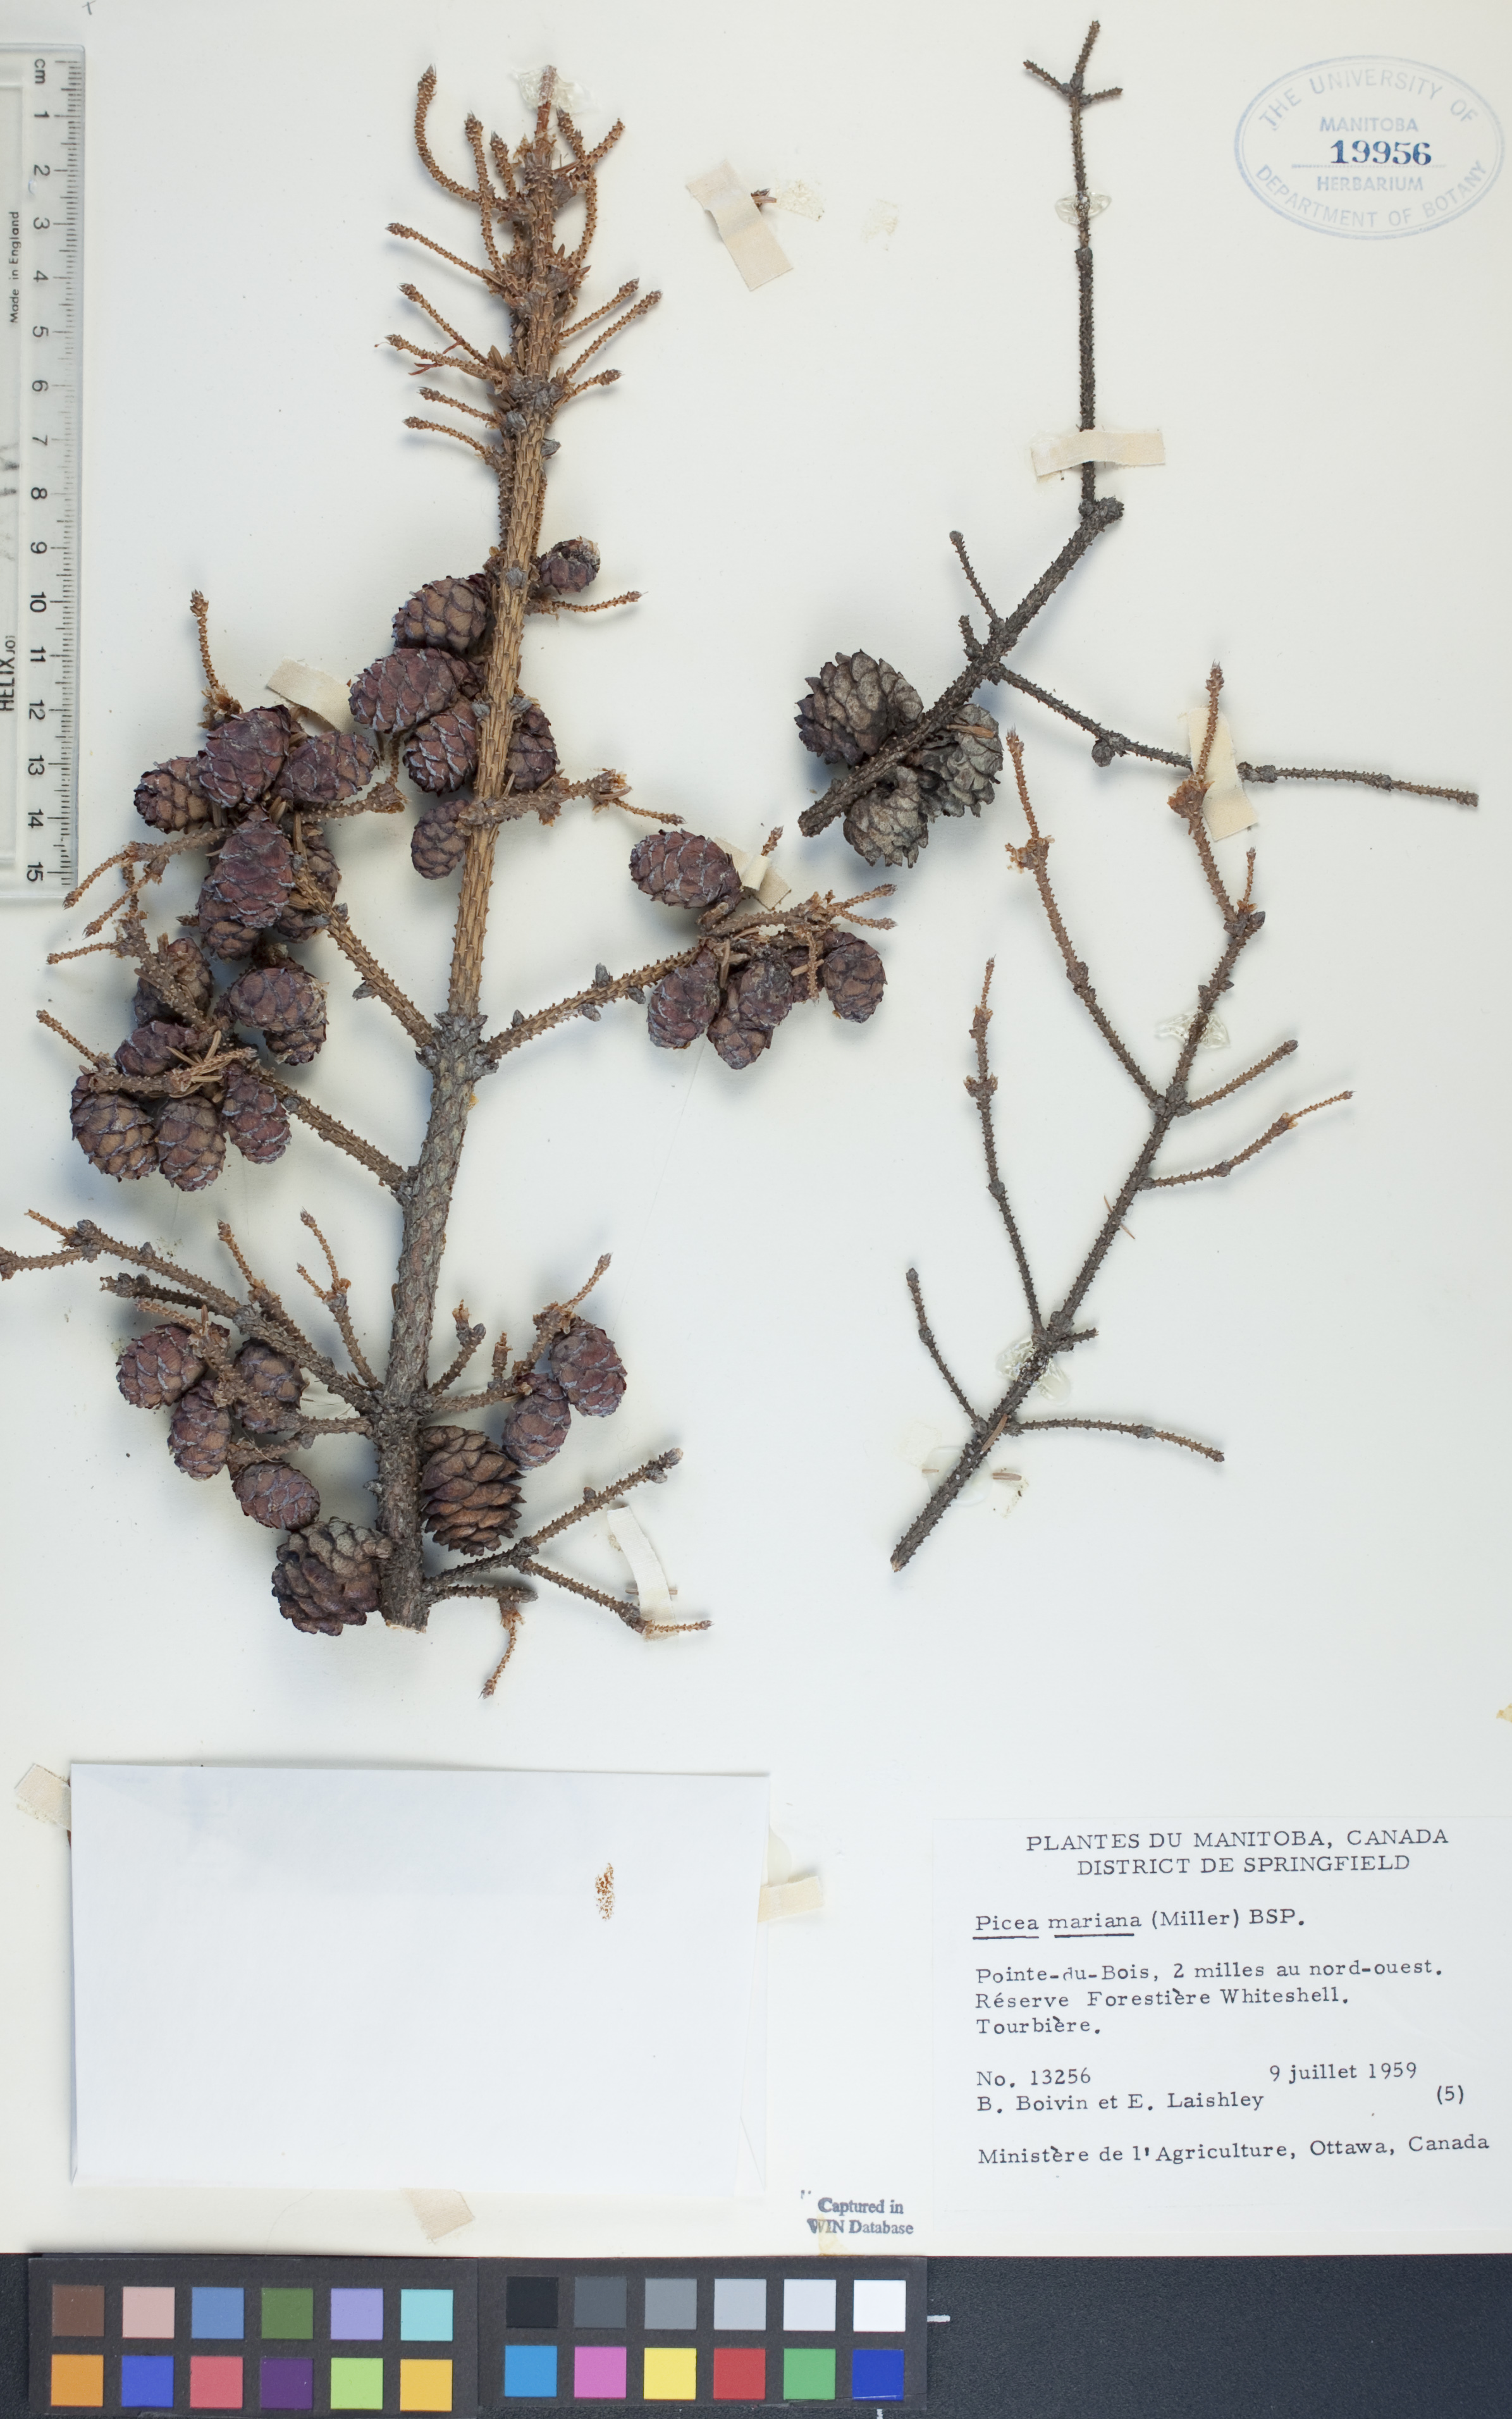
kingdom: Plantae
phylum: Tracheophyta
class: Pinopsida
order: Pinales
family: Pinaceae
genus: Picea
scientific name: Picea mariana
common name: Black spruce
